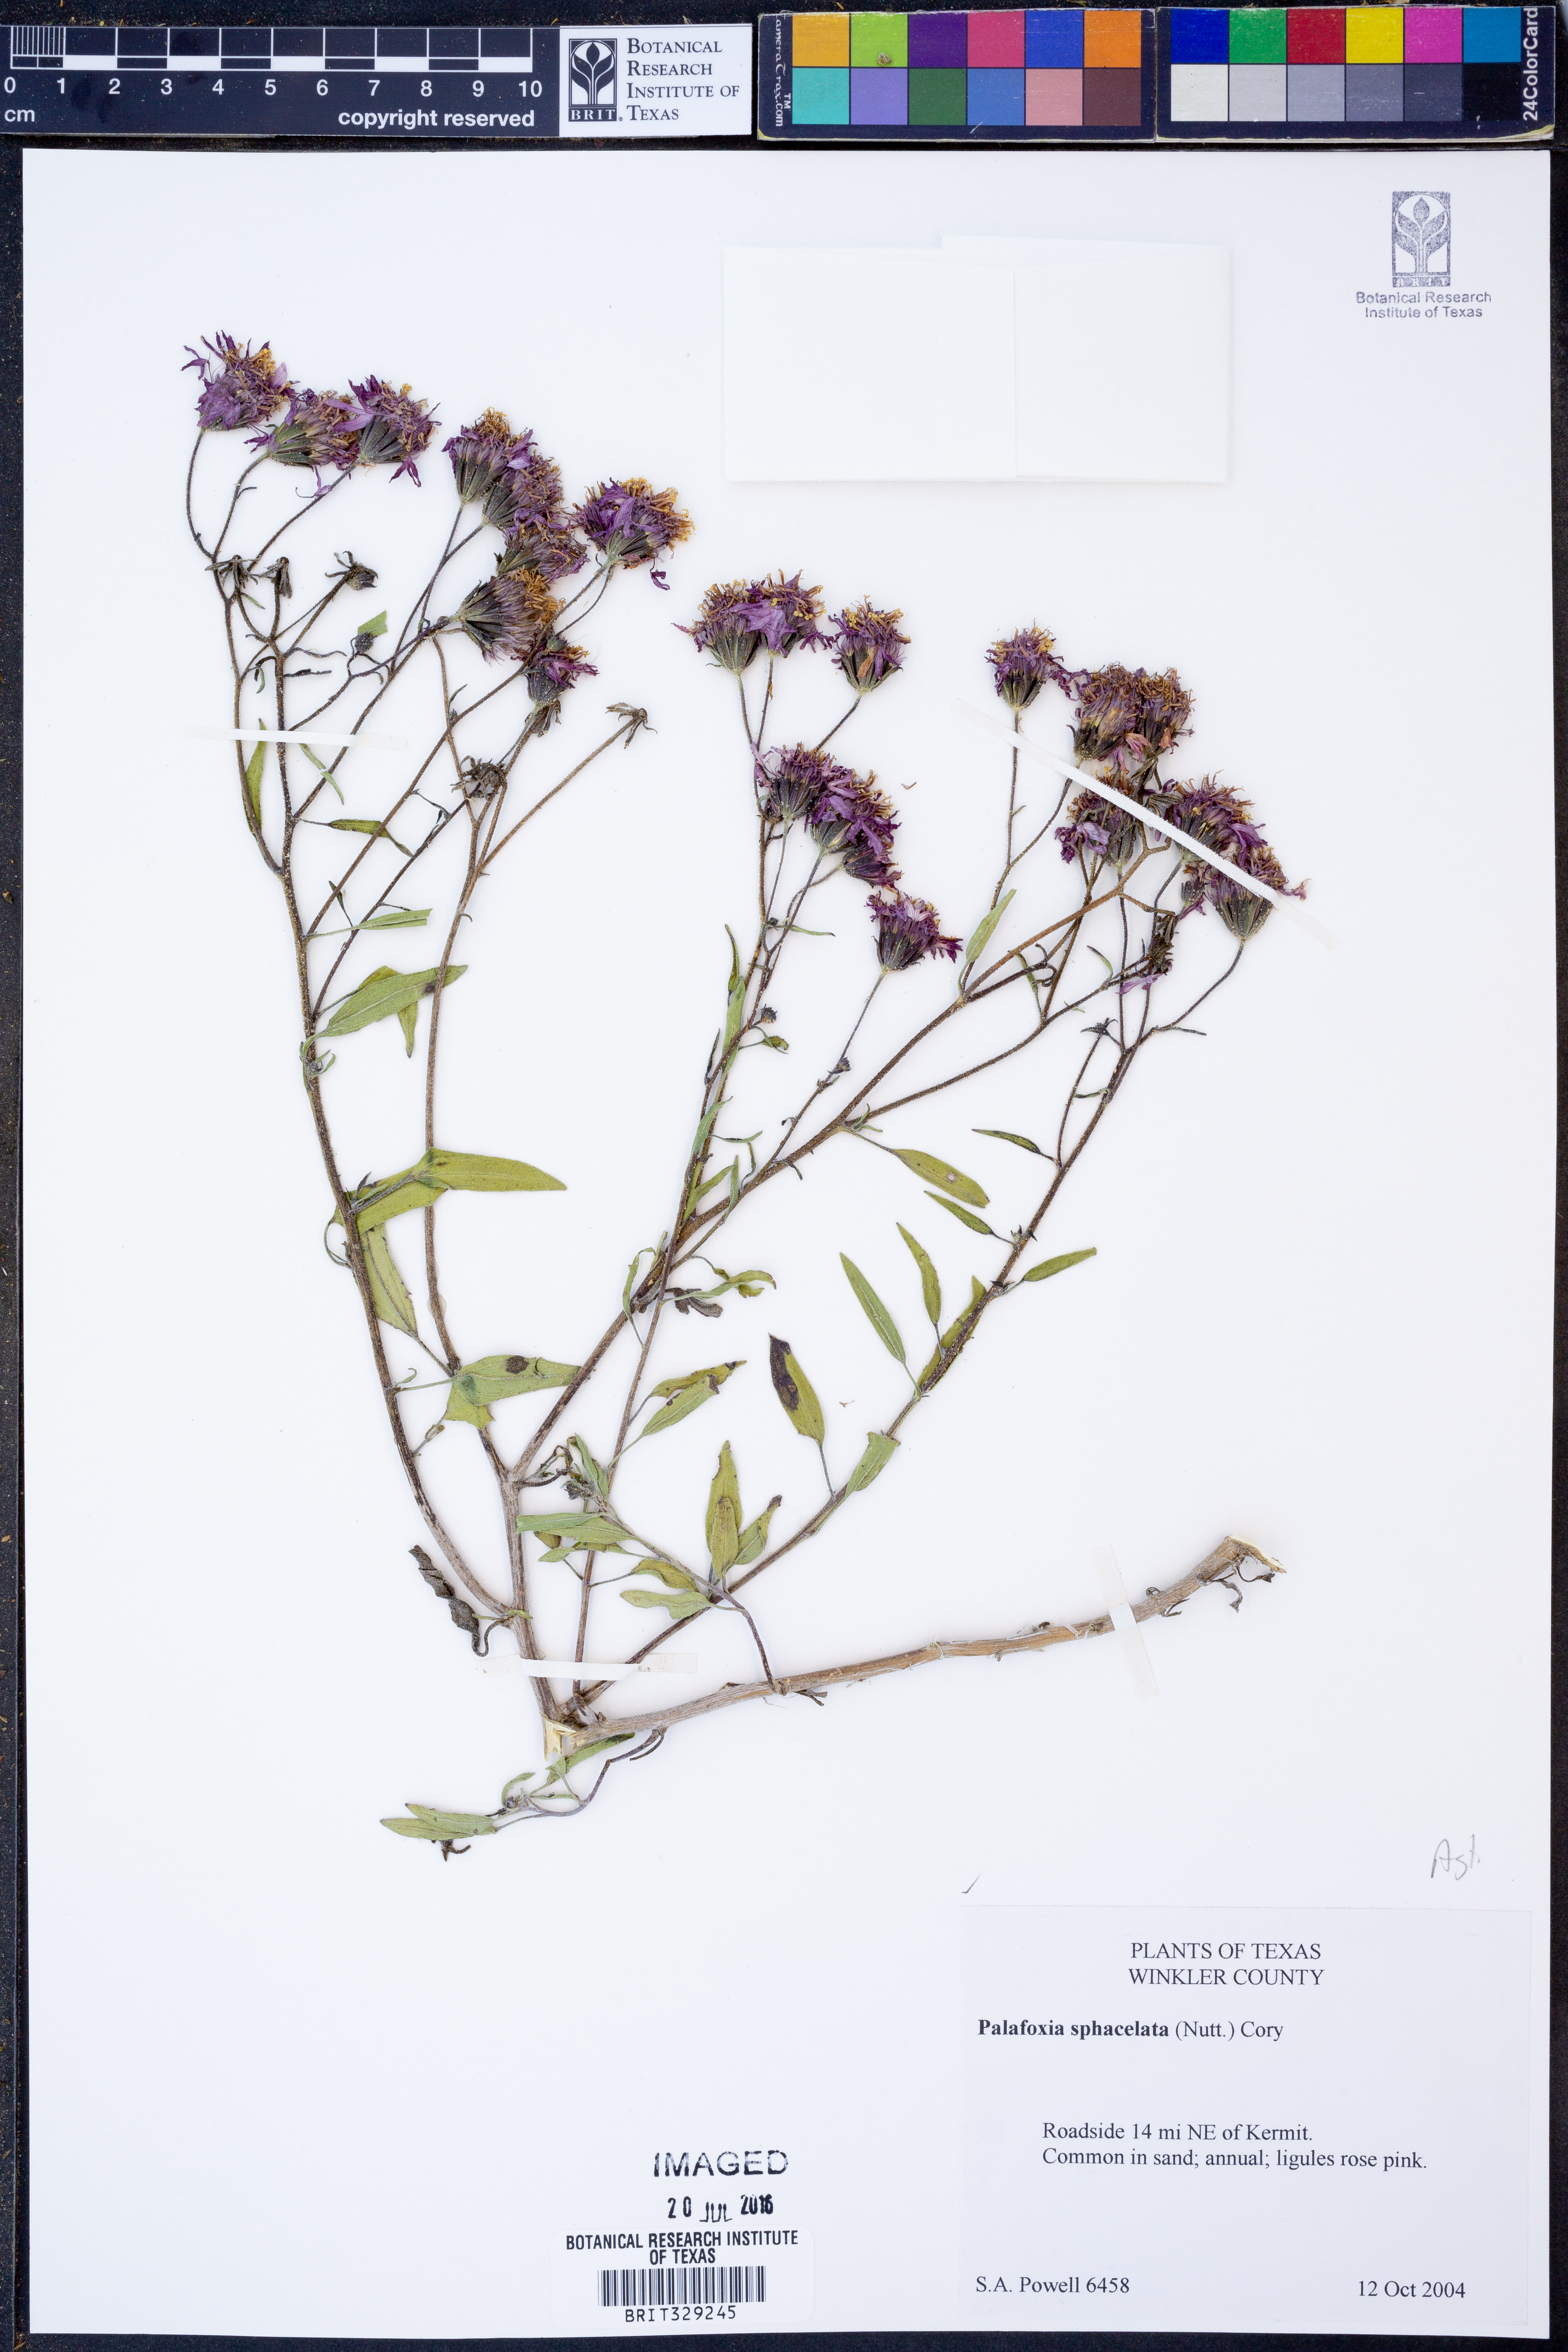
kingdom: Plantae
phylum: Tracheophyta
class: Magnoliopsida
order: Asterales
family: Asteraceae
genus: Palafoxia
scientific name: Palafoxia sphacelata
